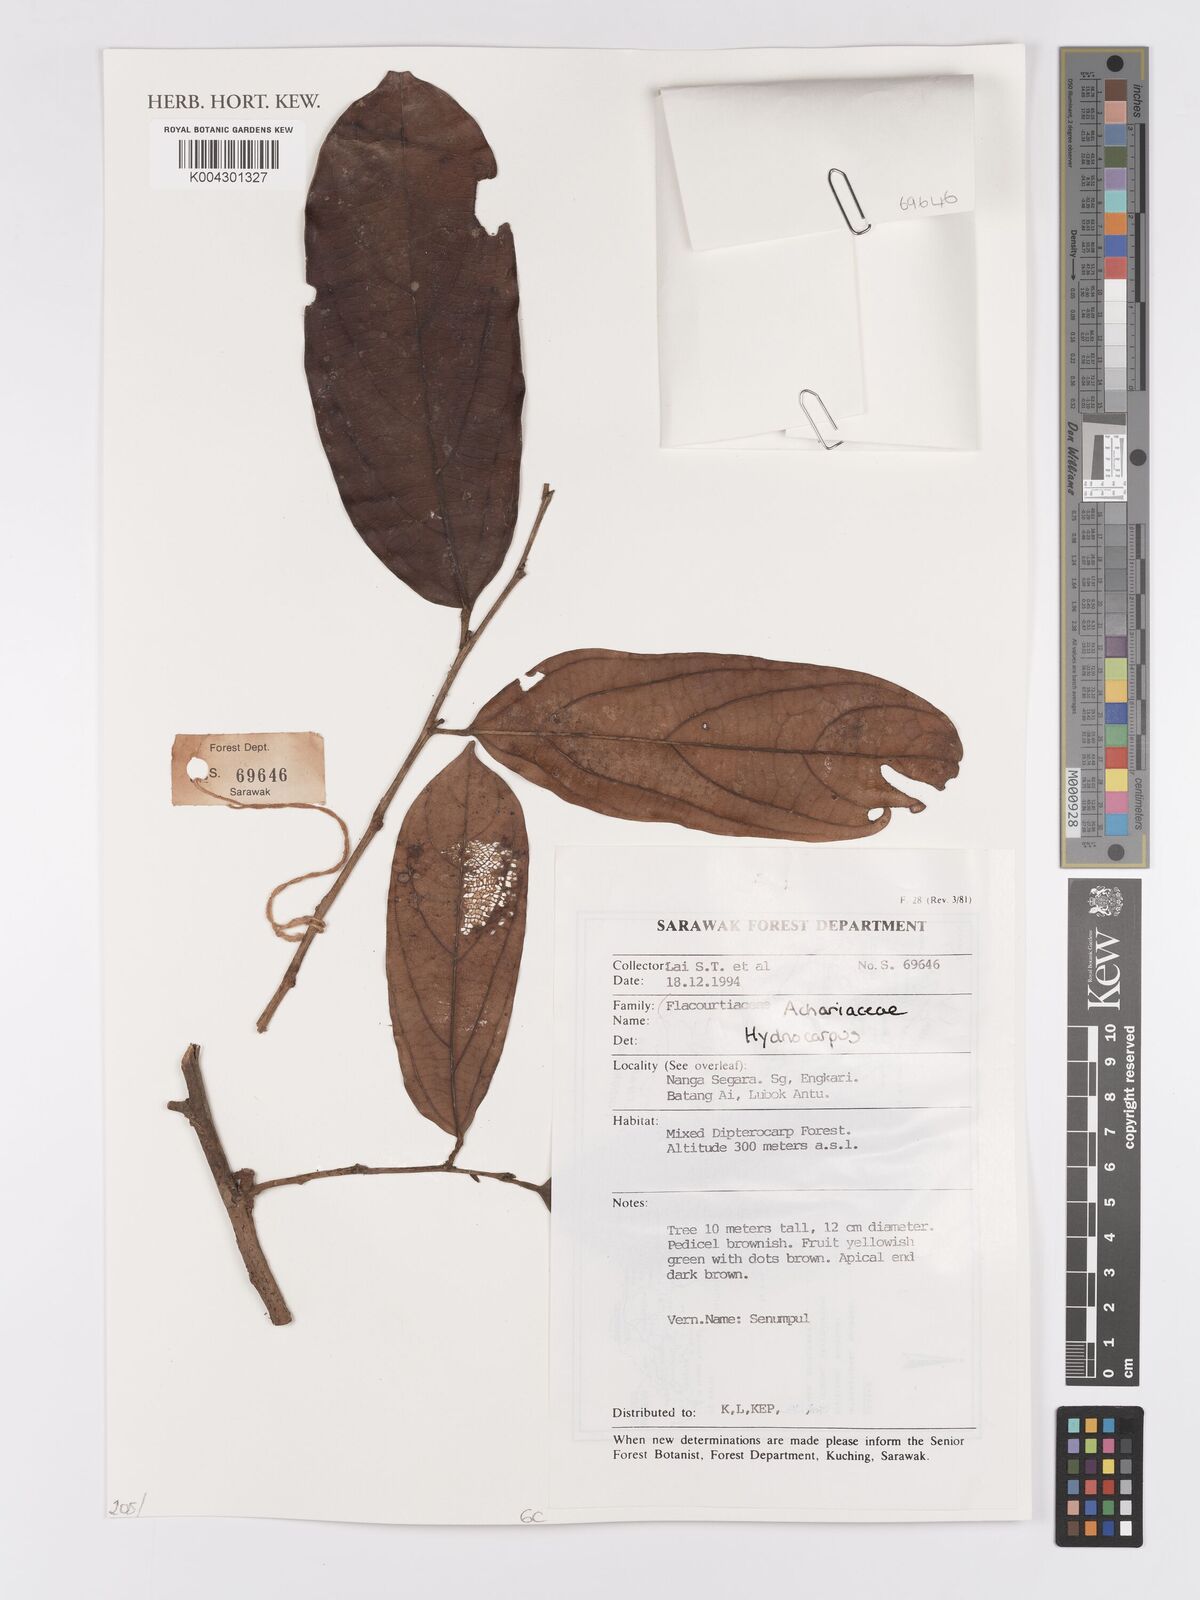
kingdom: Plantae
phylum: Tracheophyta
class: Magnoliopsida
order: Malpighiales
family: Achariaceae
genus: Hydnocarpus
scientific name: Hydnocarpus
